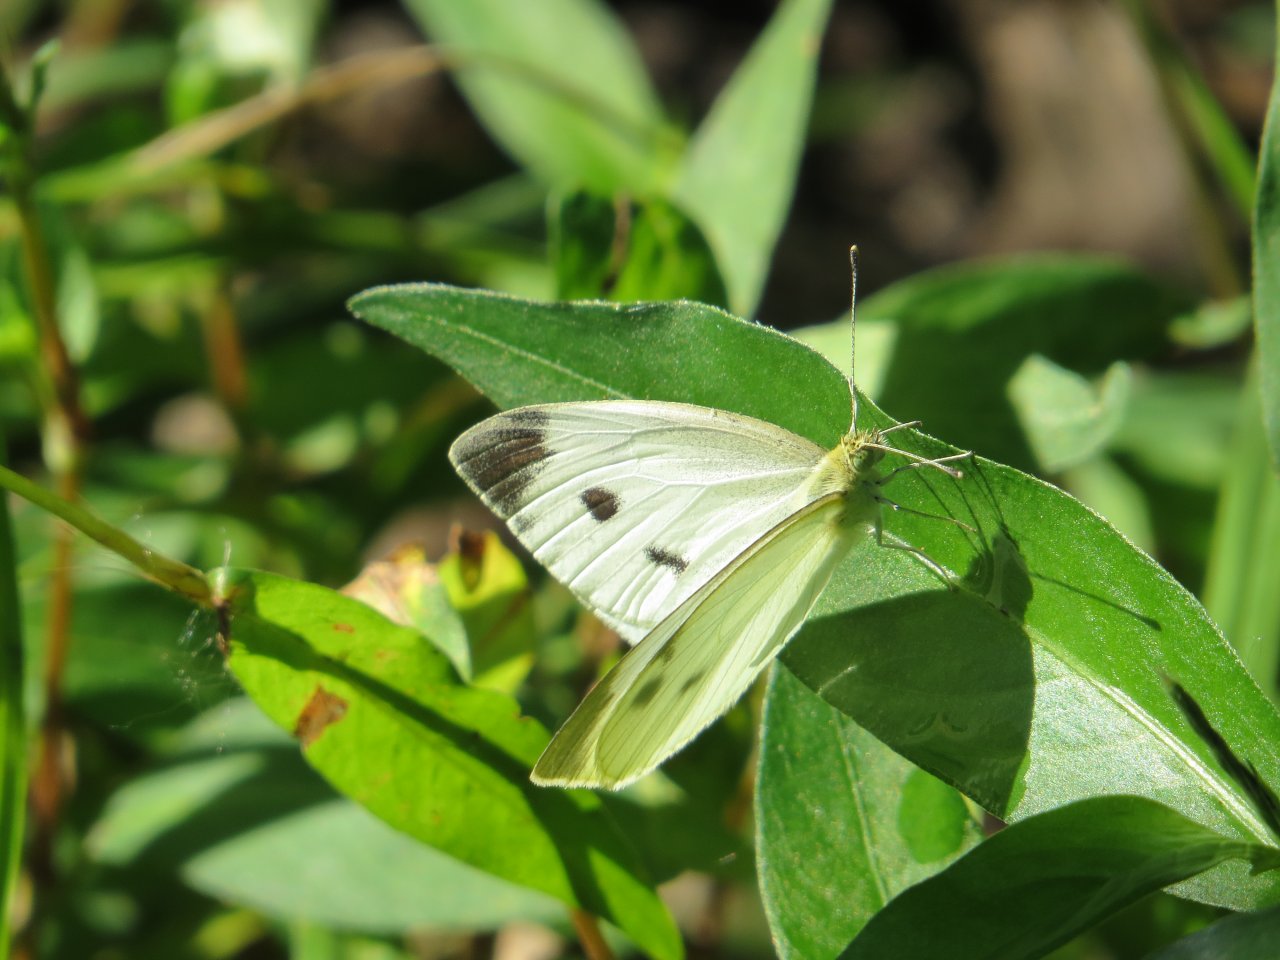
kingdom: Animalia
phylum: Arthropoda
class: Insecta
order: Lepidoptera
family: Pieridae
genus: Pieris
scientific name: Pieris rapae
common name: Cabbage White
